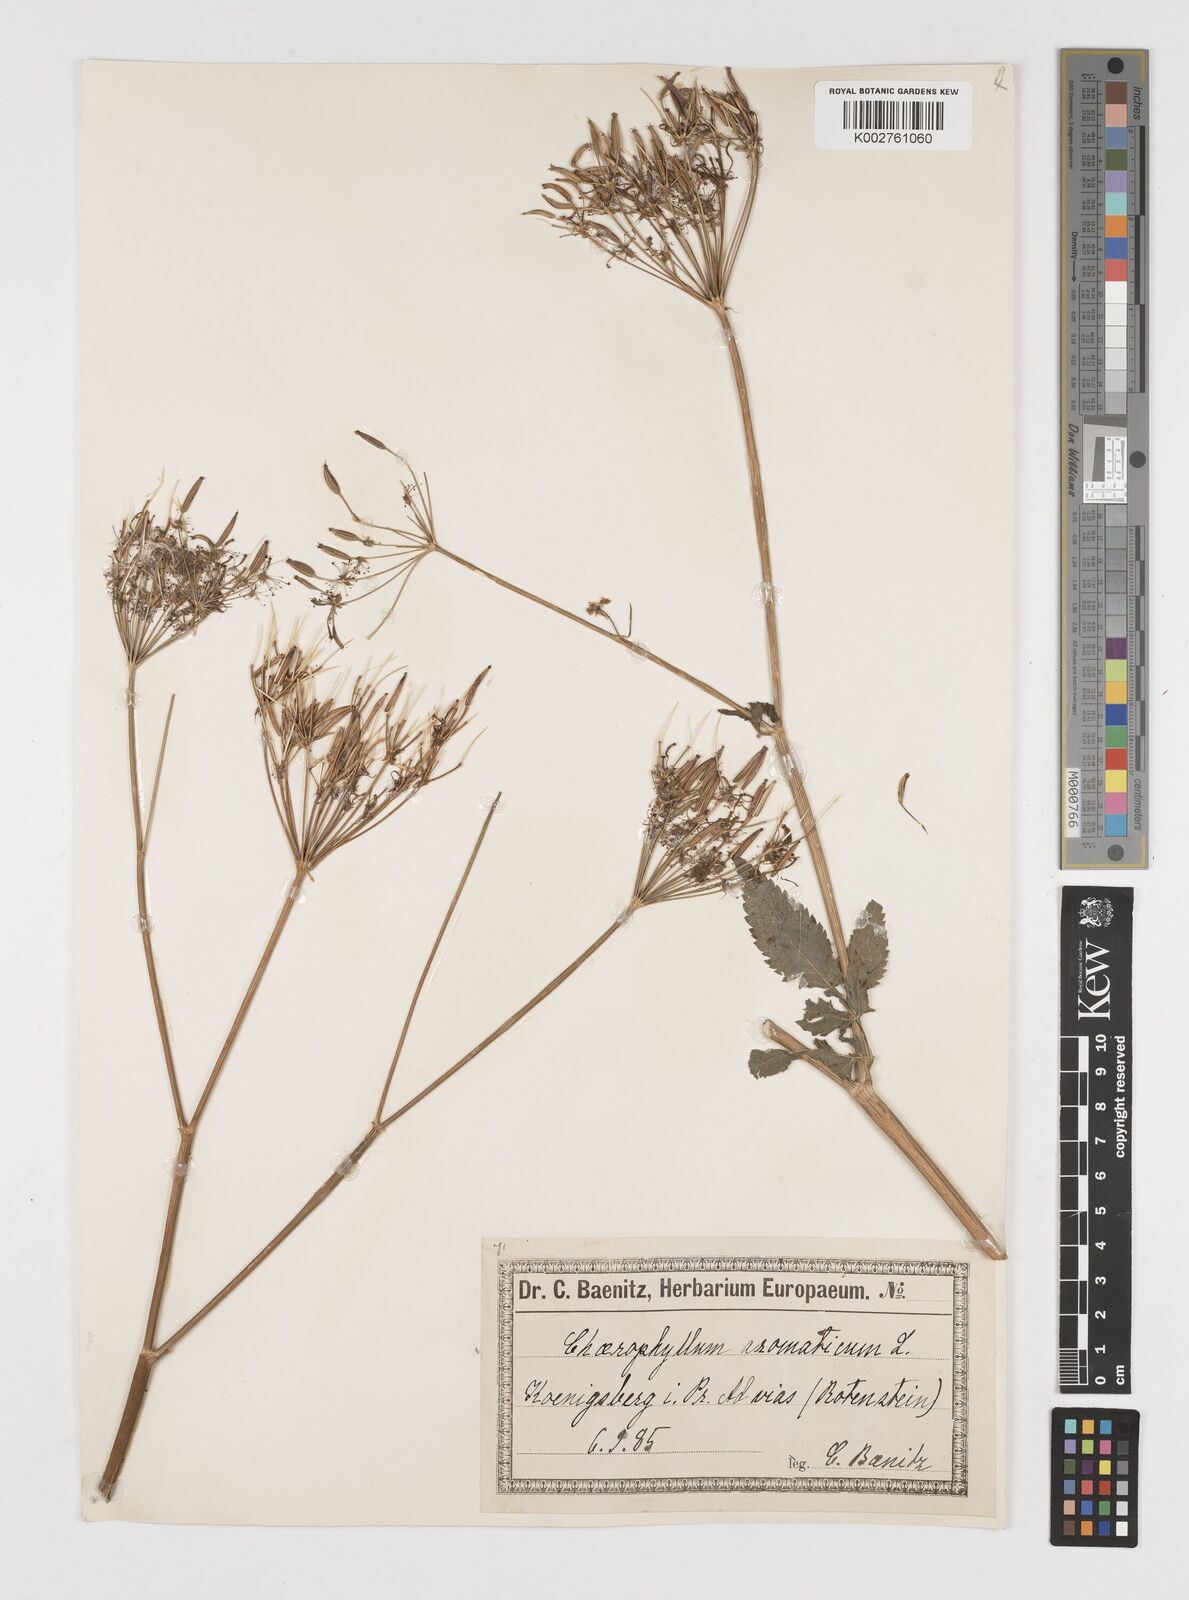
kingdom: Plantae
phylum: Tracheophyta
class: Magnoliopsida
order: Apiales
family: Apiaceae
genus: Chaerophyllum
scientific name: Chaerophyllum aromaticum
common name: Broadleaf chervil
